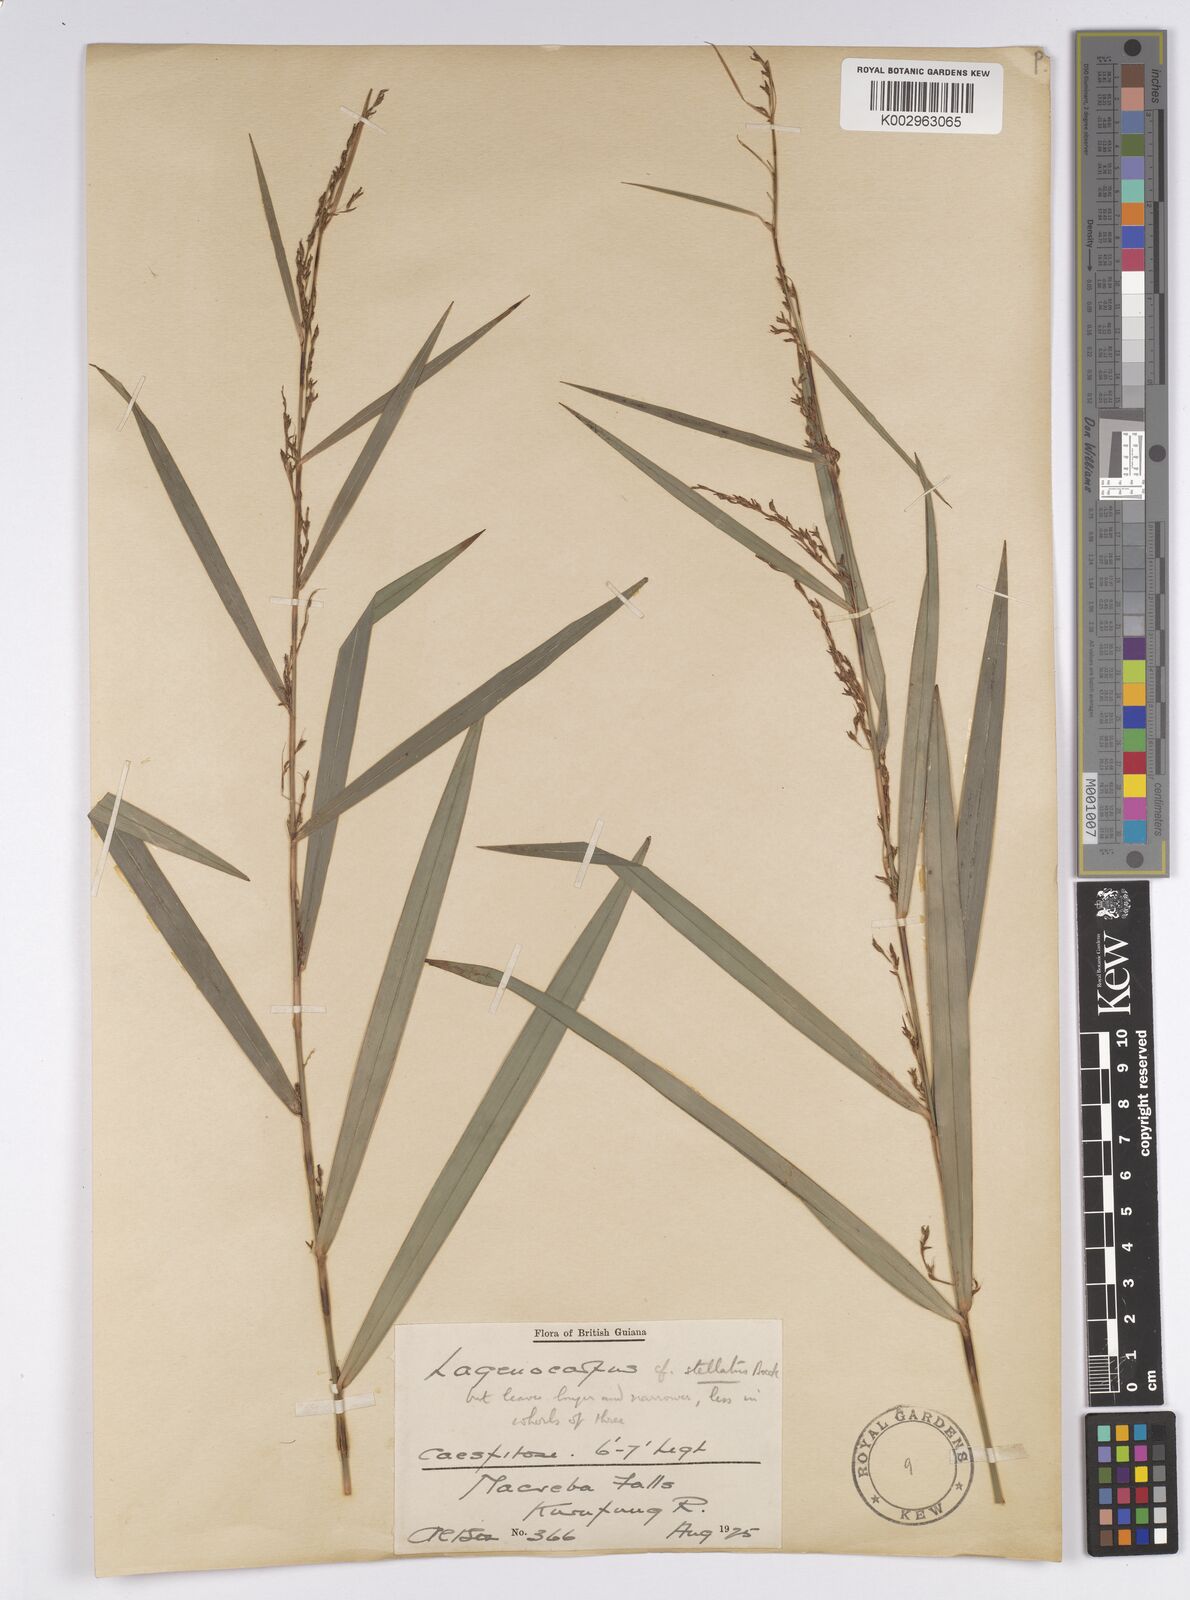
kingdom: Plantae
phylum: Tracheophyta
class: Liliopsida
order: Poales
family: Cyperaceae
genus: Didymiandrum
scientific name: Didymiandrum stellatum
